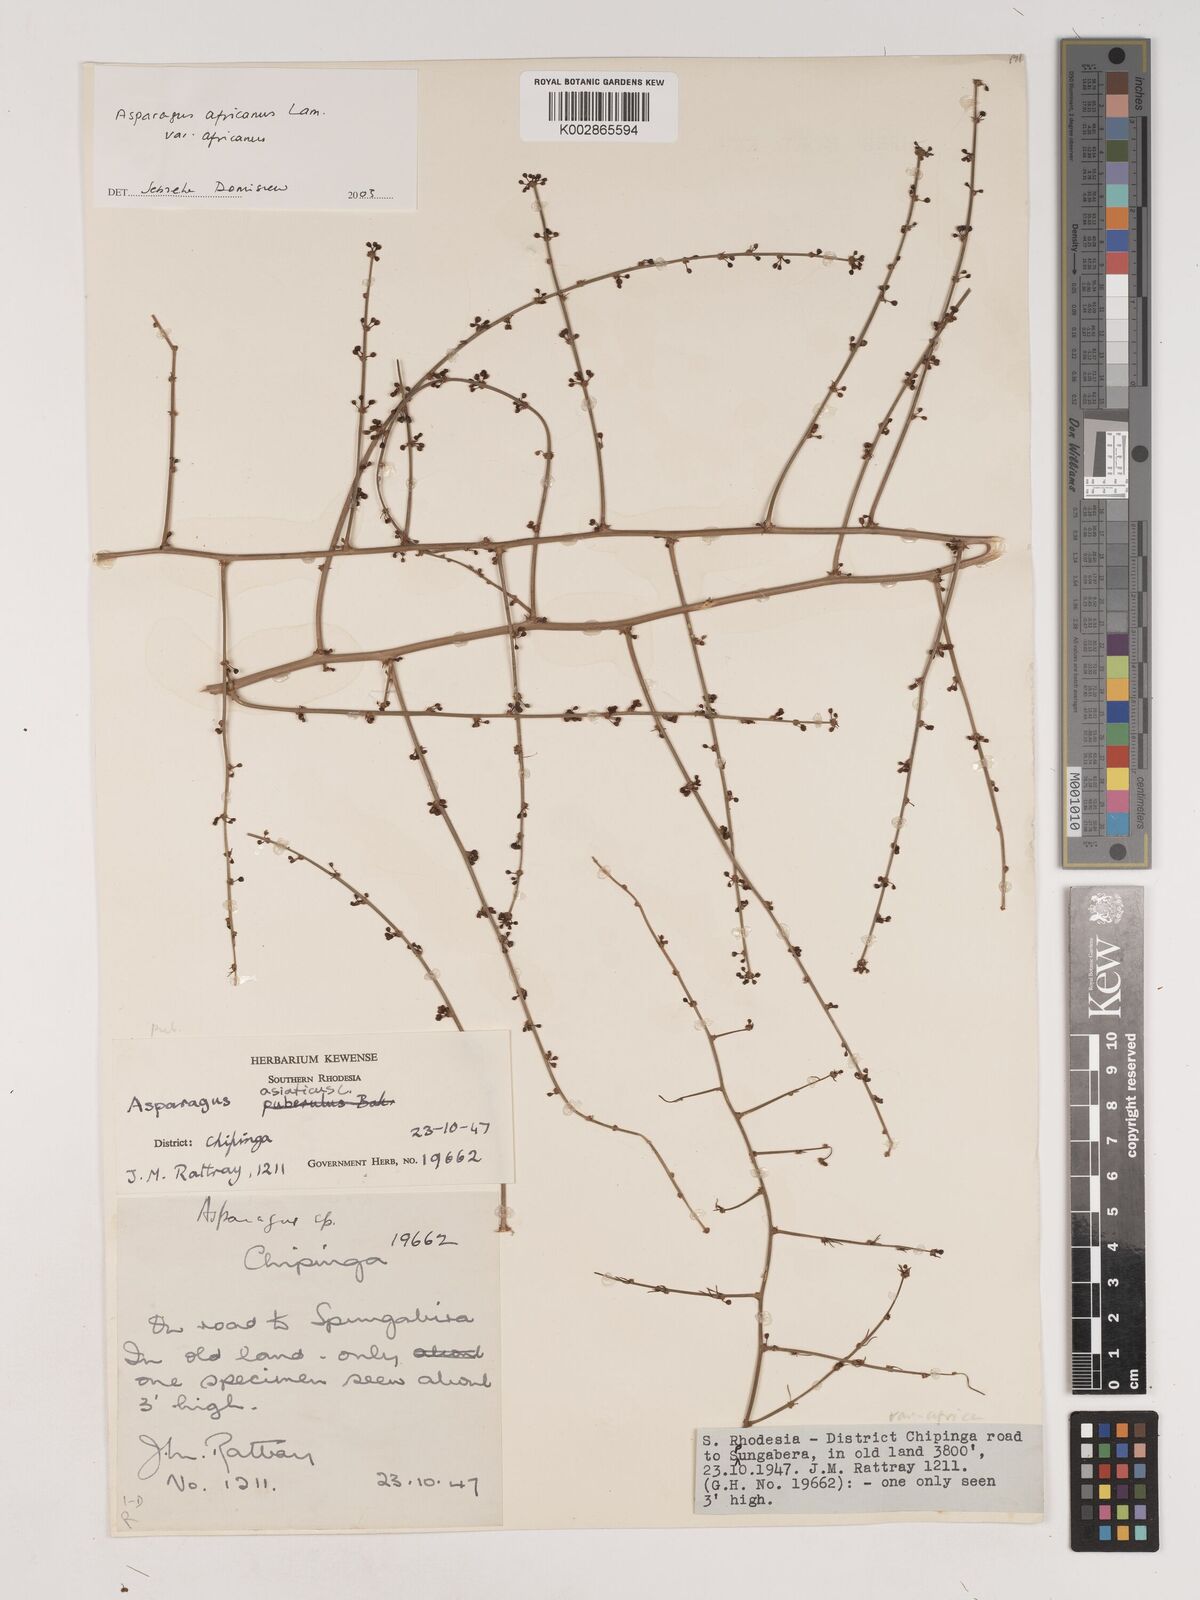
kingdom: Plantae
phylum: Tracheophyta
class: Liliopsida
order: Asparagales
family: Asparagaceae
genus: Asparagus
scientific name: Asparagus africanus
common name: Asparagus-fern
